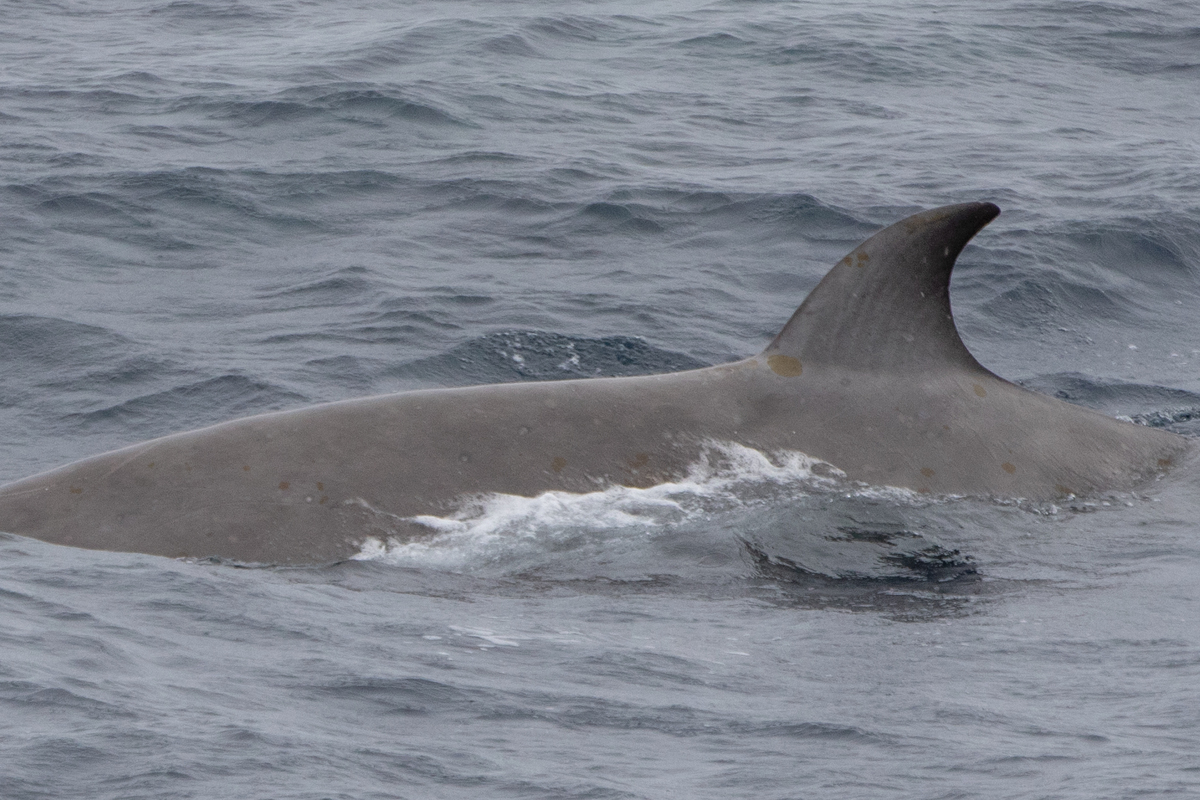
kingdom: Animalia
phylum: Chordata
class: Mammalia
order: Cetacea
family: Hyperoodontidae
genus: Hyperoodon
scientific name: Hyperoodon ampullatus
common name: Northern bottlenose whale
